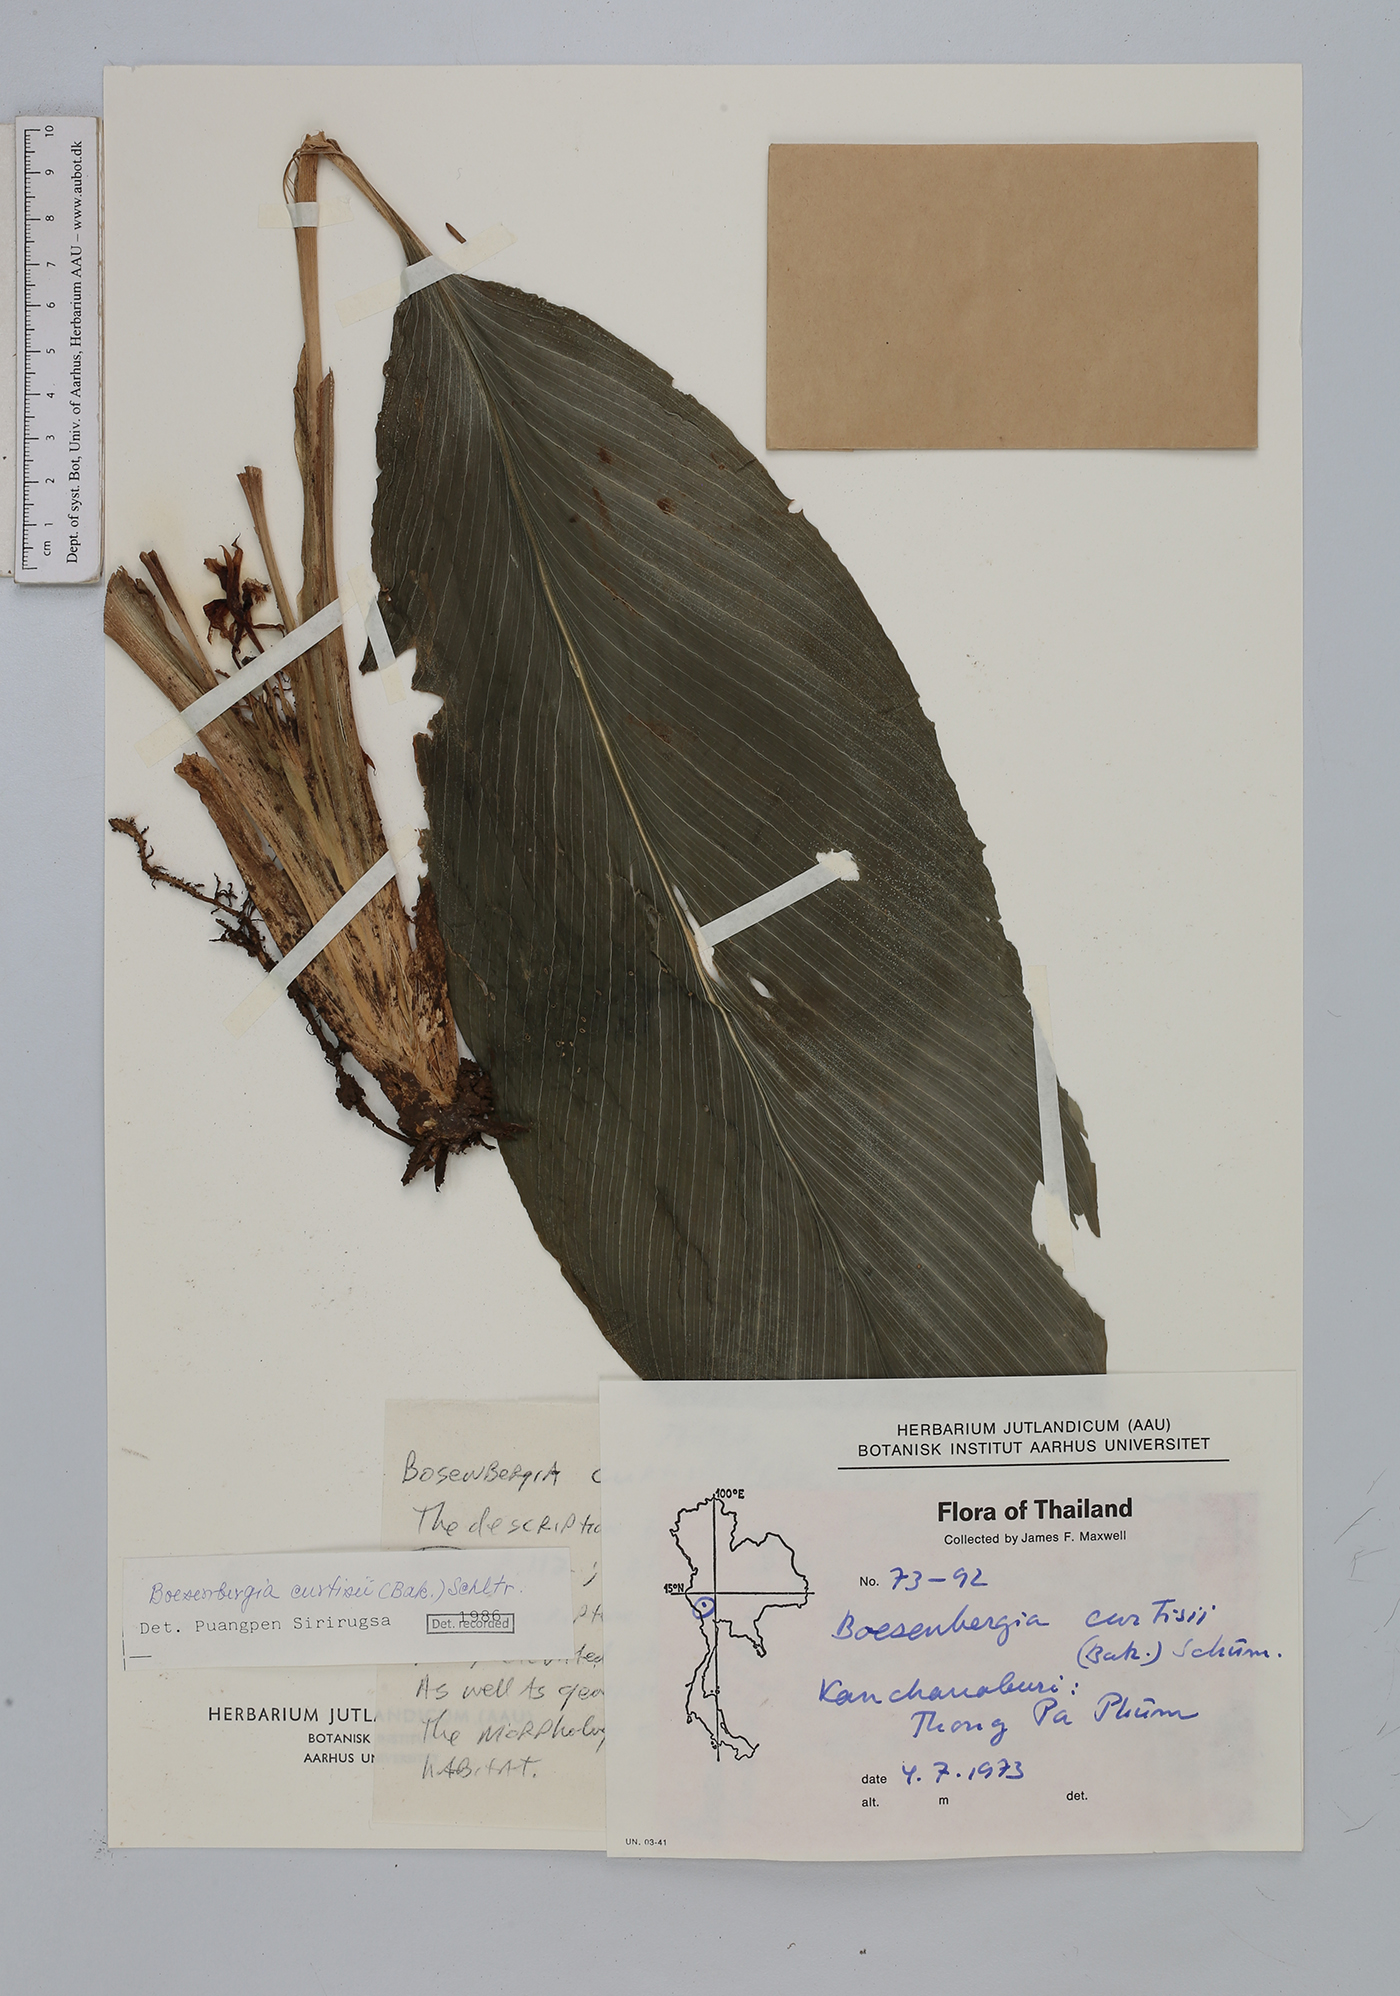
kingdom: Plantae
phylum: Tracheophyta
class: Liliopsida
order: Zingiberales
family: Zingiberaceae
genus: Boesenbergia
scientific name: Boesenbergia curtisii
